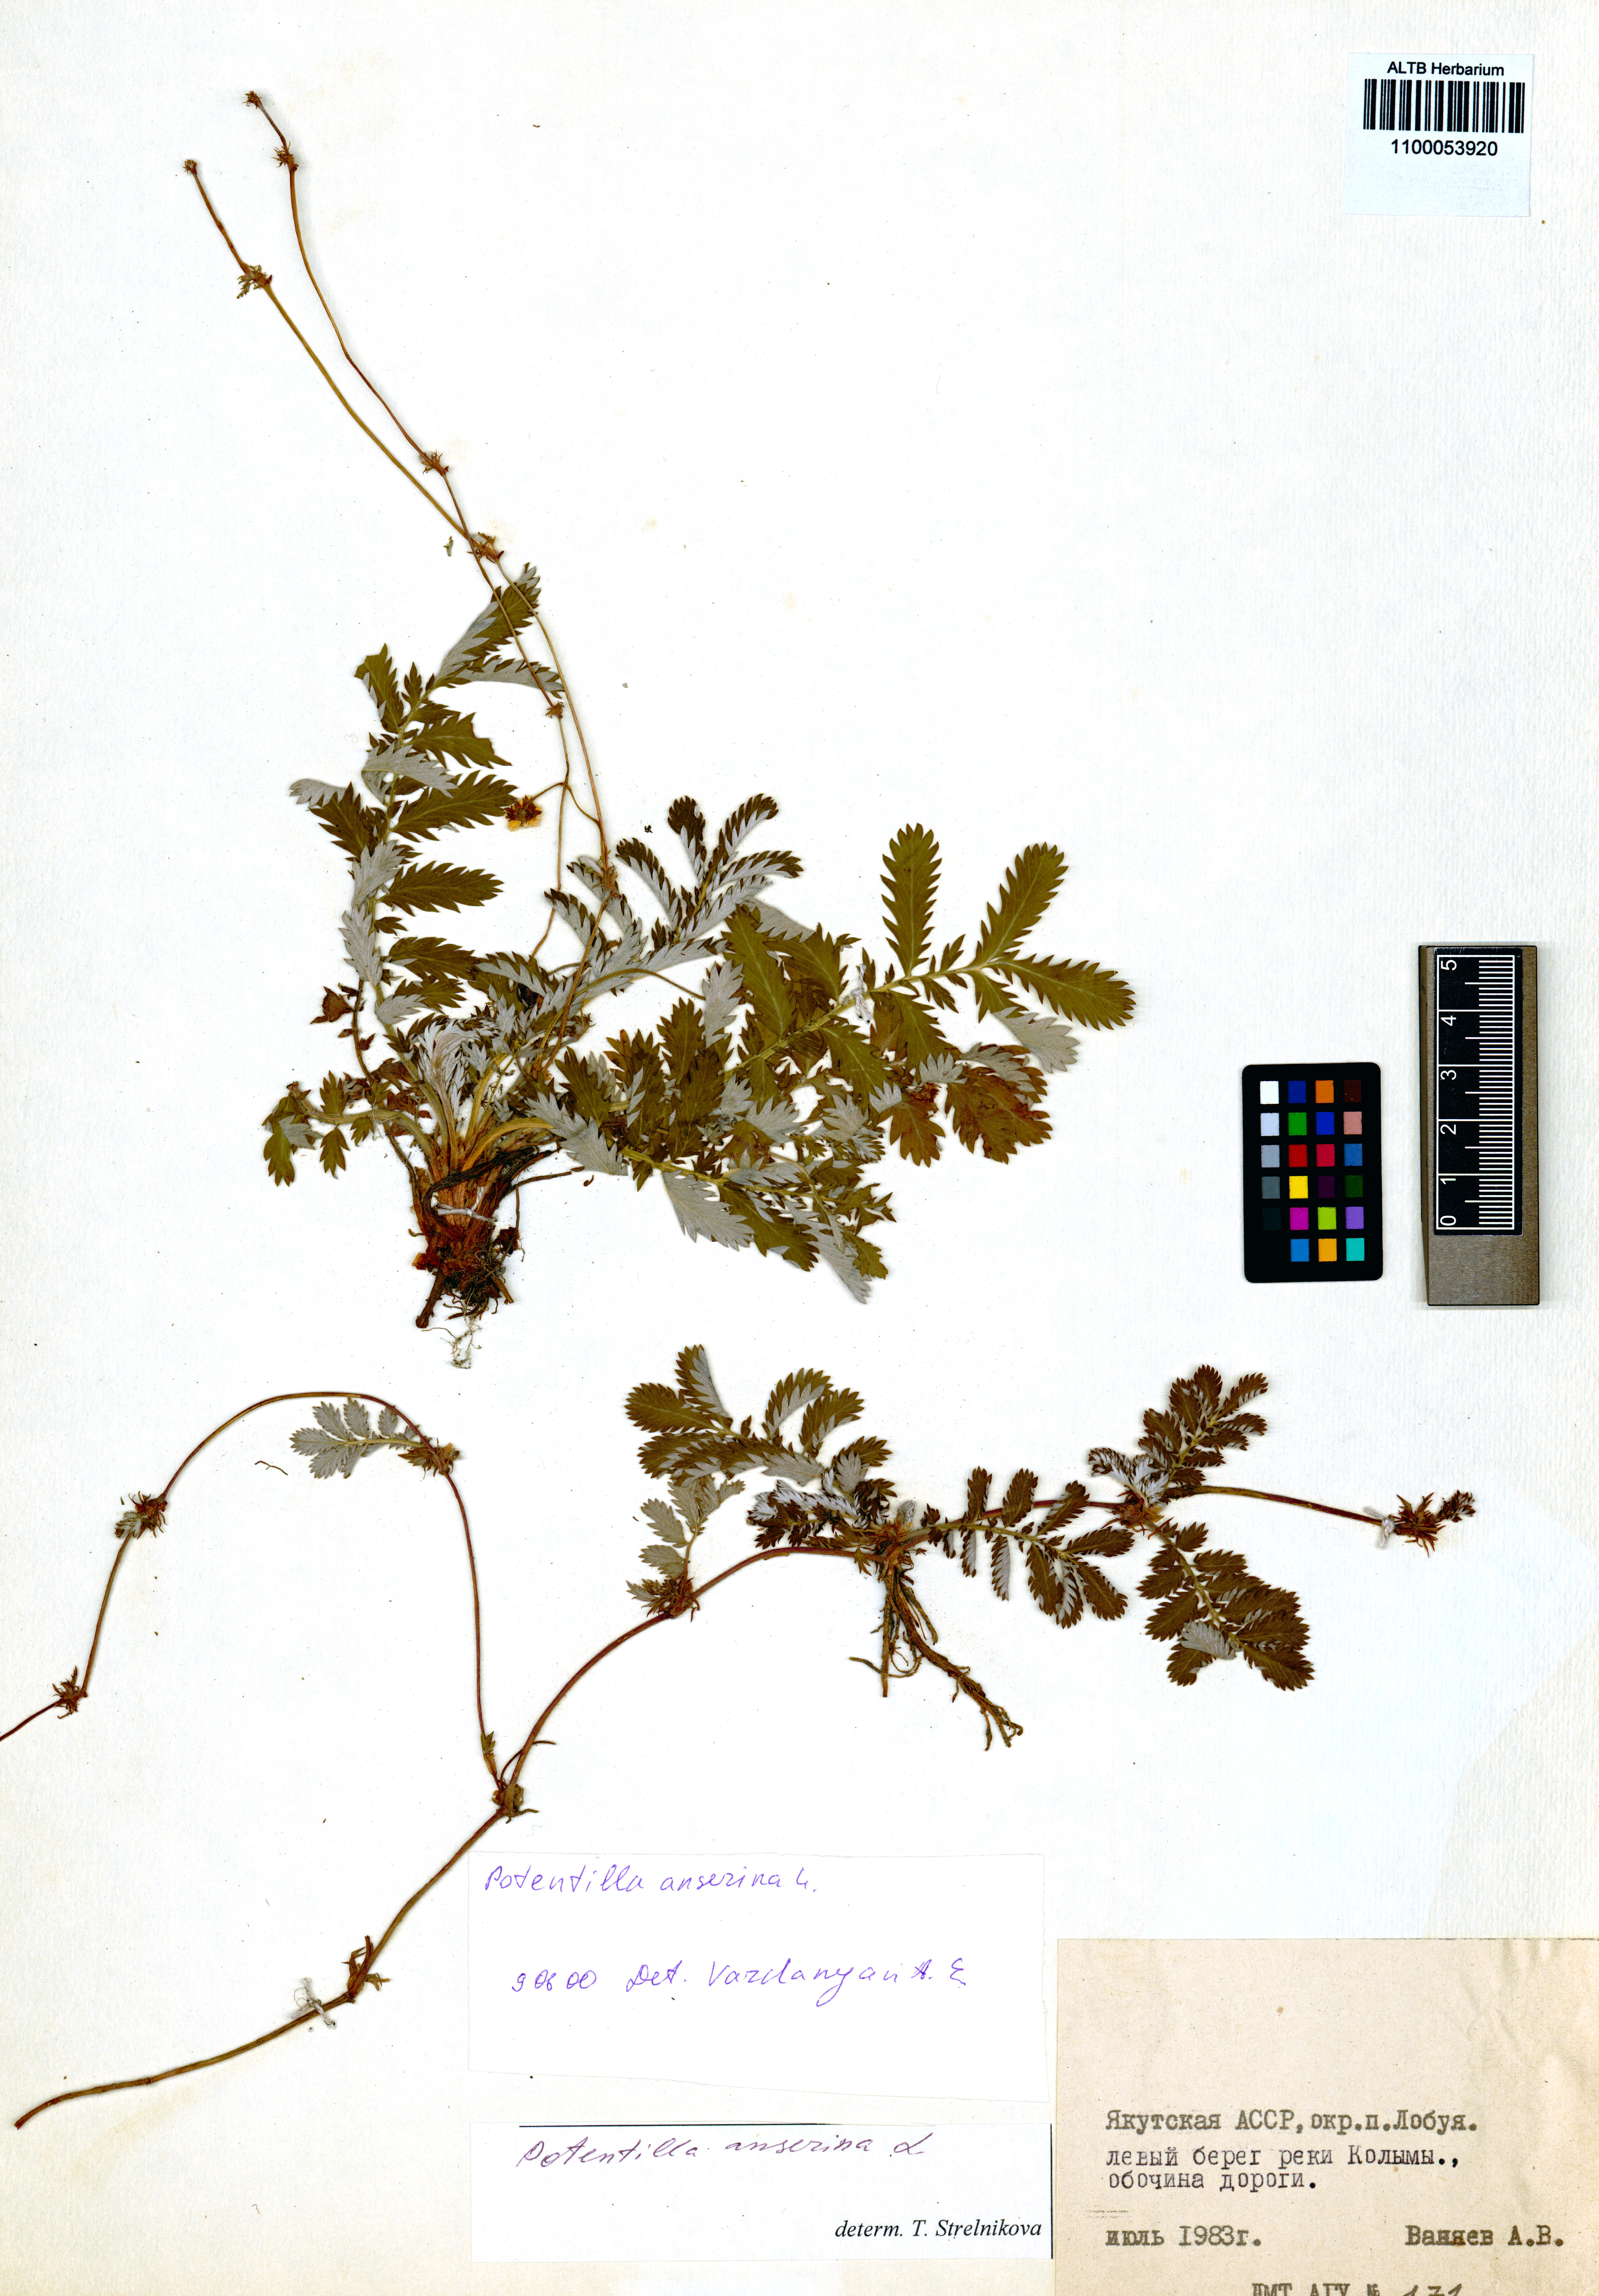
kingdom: Plantae
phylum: Tracheophyta
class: Magnoliopsida
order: Rosales
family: Rosaceae
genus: Argentina
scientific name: Argentina anserina
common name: Common silverweed
